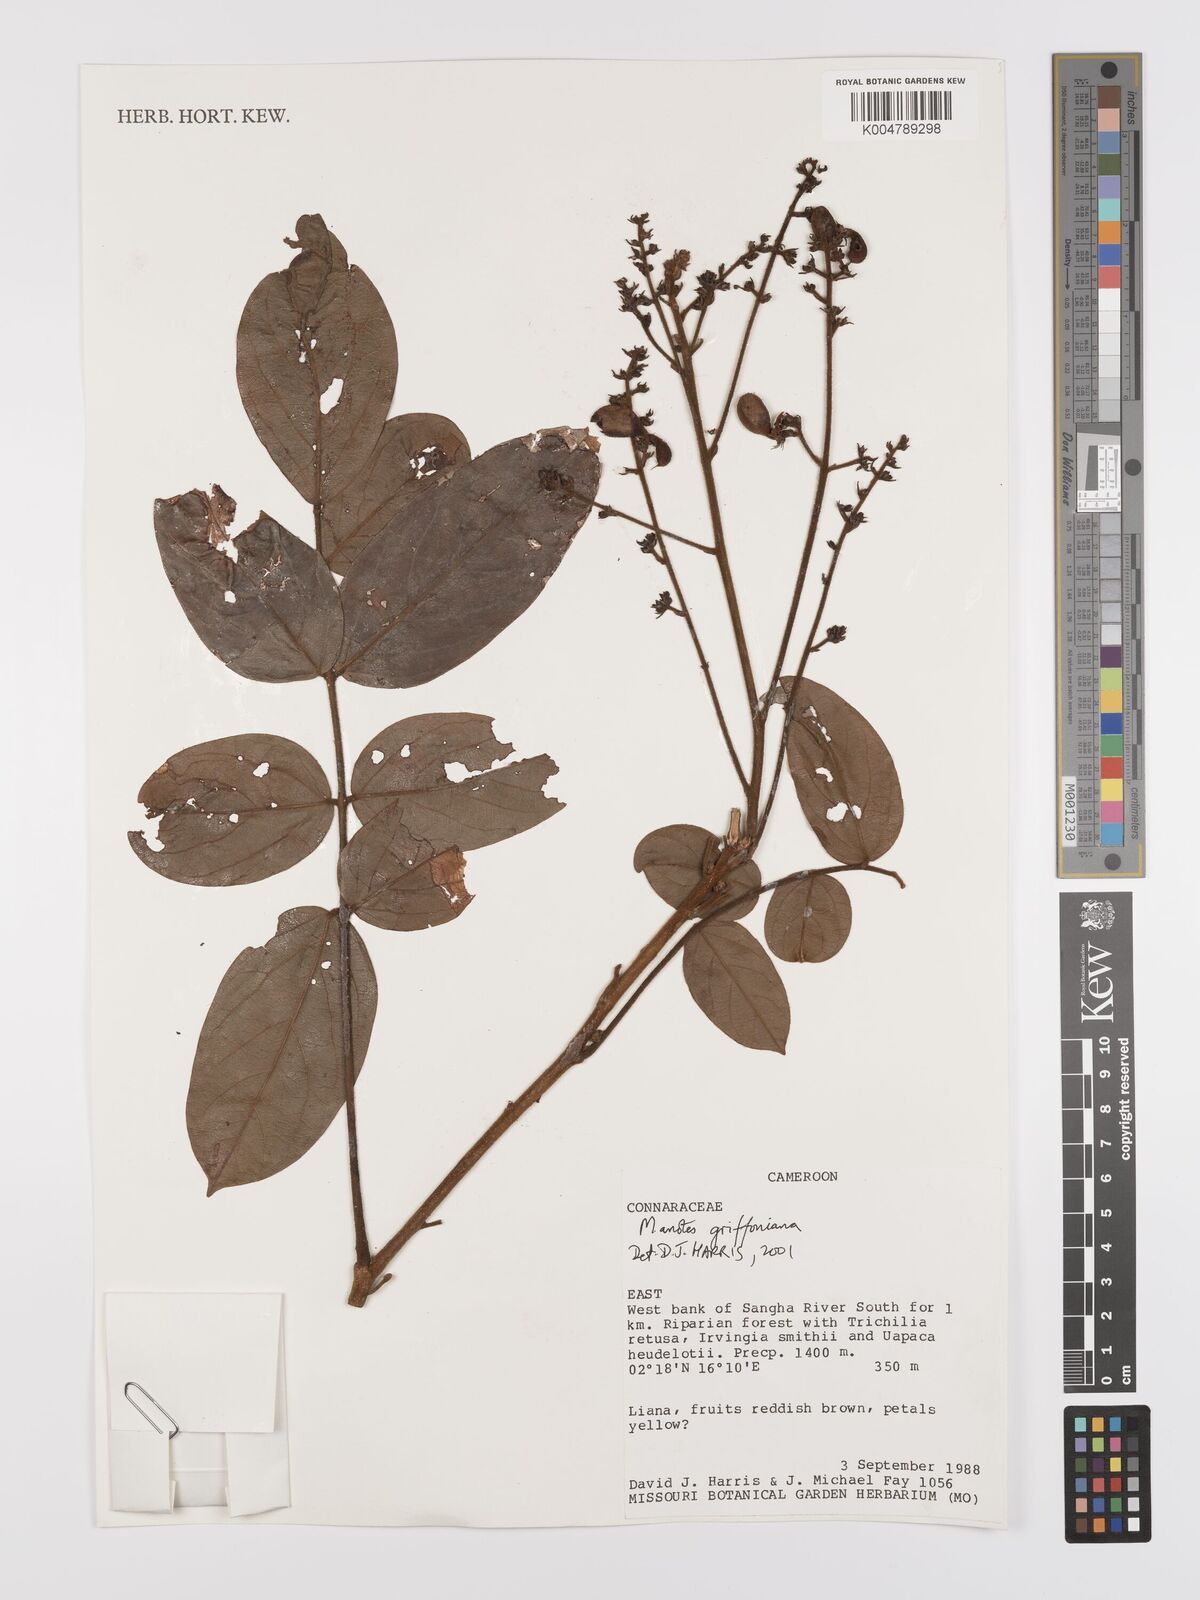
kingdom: Plantae
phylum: Tracheophyta
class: Magnoliopsida
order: Oxalidales
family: Connaraceae
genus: Manotes
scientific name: Manotes griffoniana
